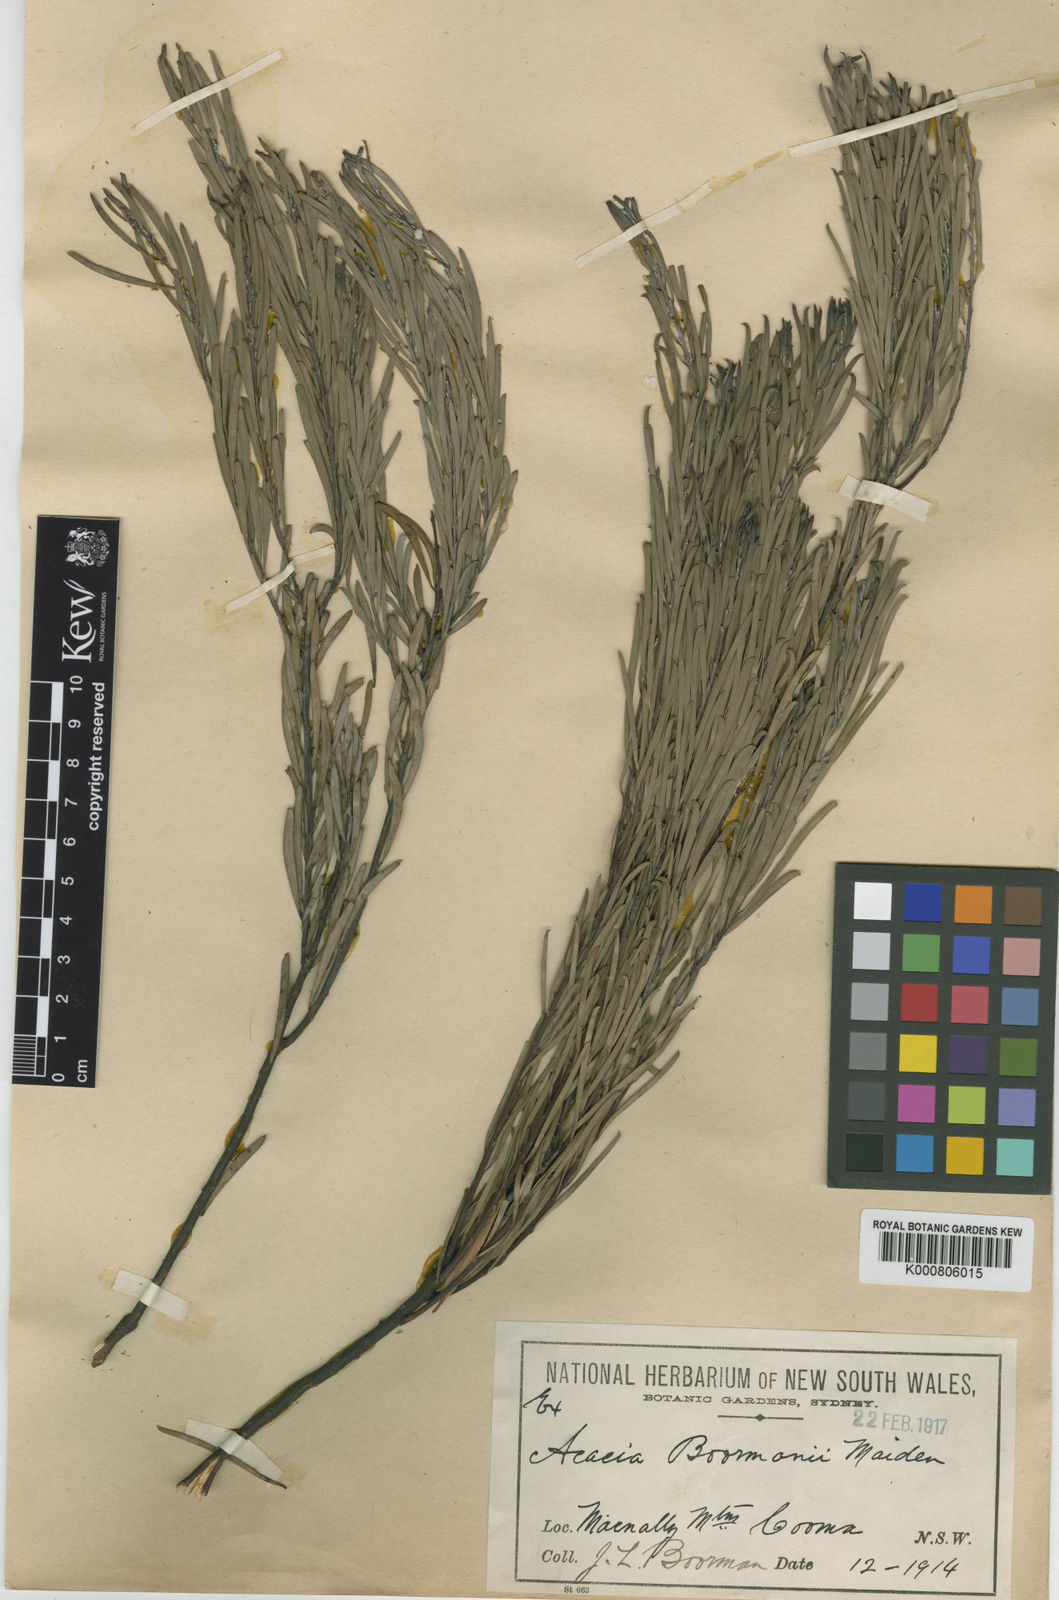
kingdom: Plantae
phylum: Tracheophyta
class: Magnoliopsida
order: Fabales
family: Fabaceae
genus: Acacia
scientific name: Acacia boormanii
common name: Snowy river wattle
